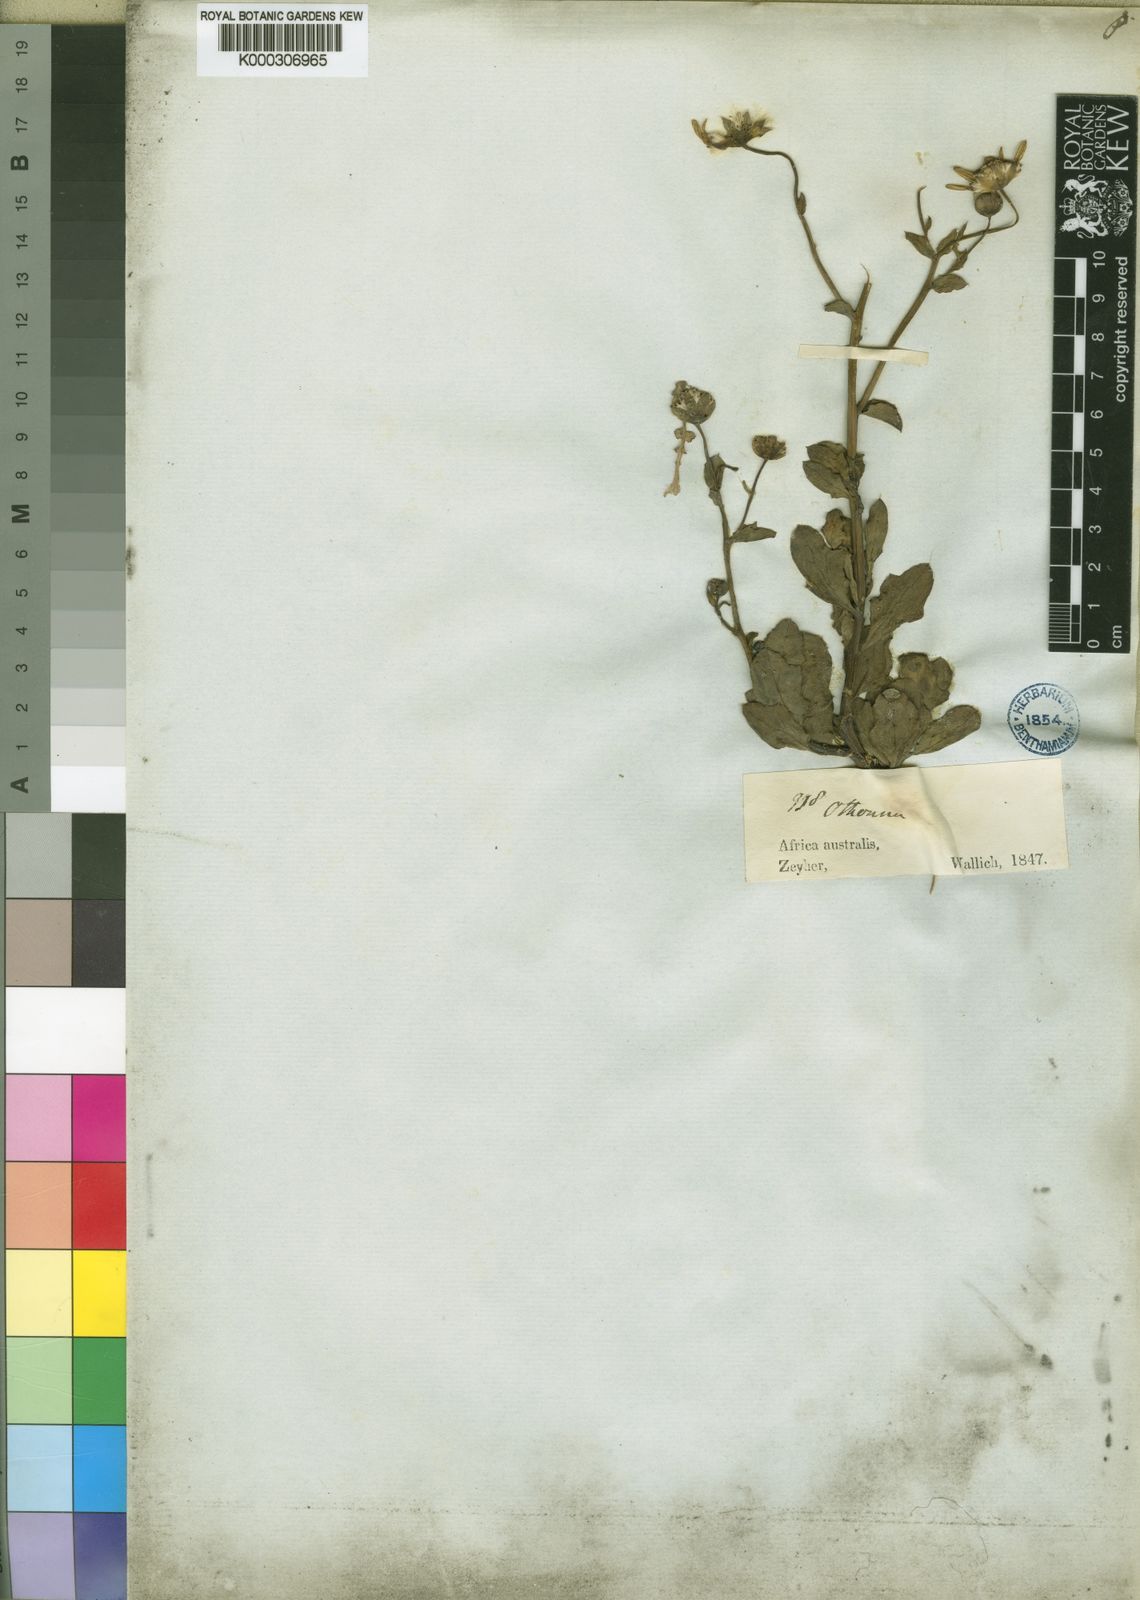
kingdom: Plantae
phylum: Tracheophyta
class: Magnoliopsida
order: Asterales
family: Asteraceae
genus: Othonna
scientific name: Othonna mucronata
